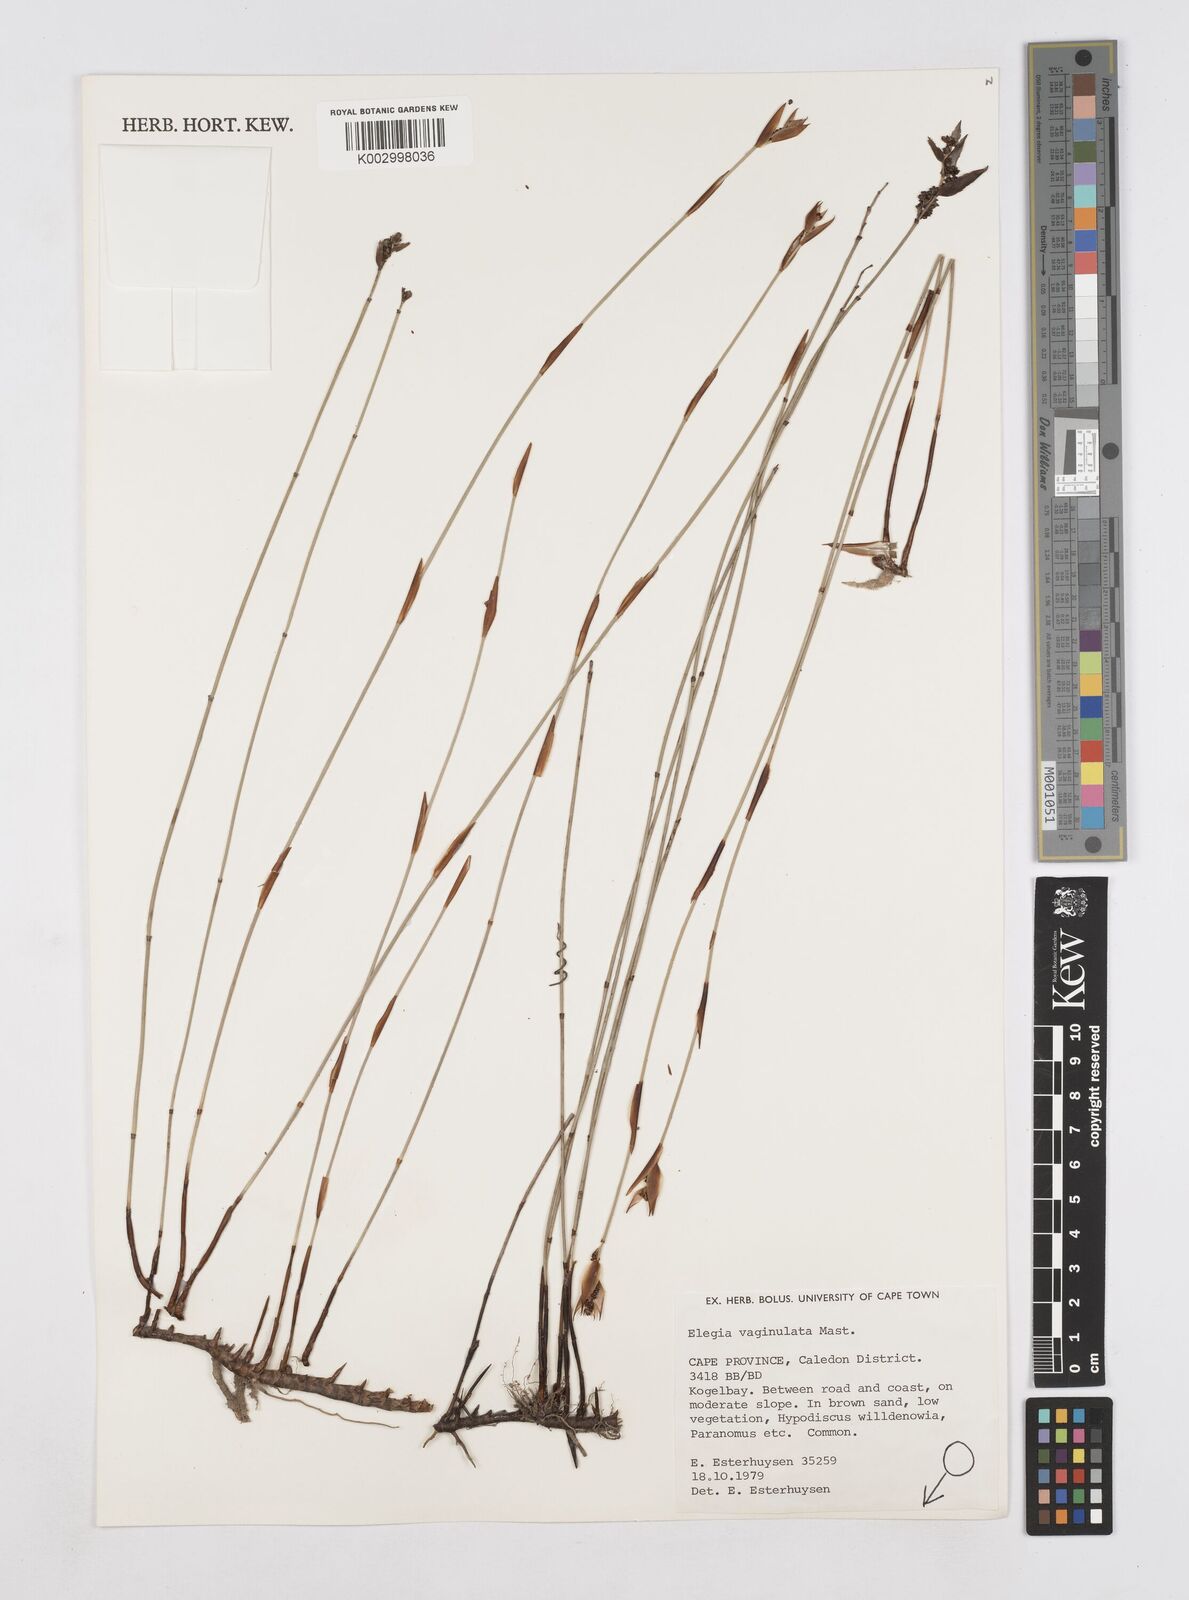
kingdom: Plantae
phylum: Tracheophyta
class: Liliopsida
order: Poales
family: Restionaceae
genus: Elegia
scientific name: Elegia vaginulata
